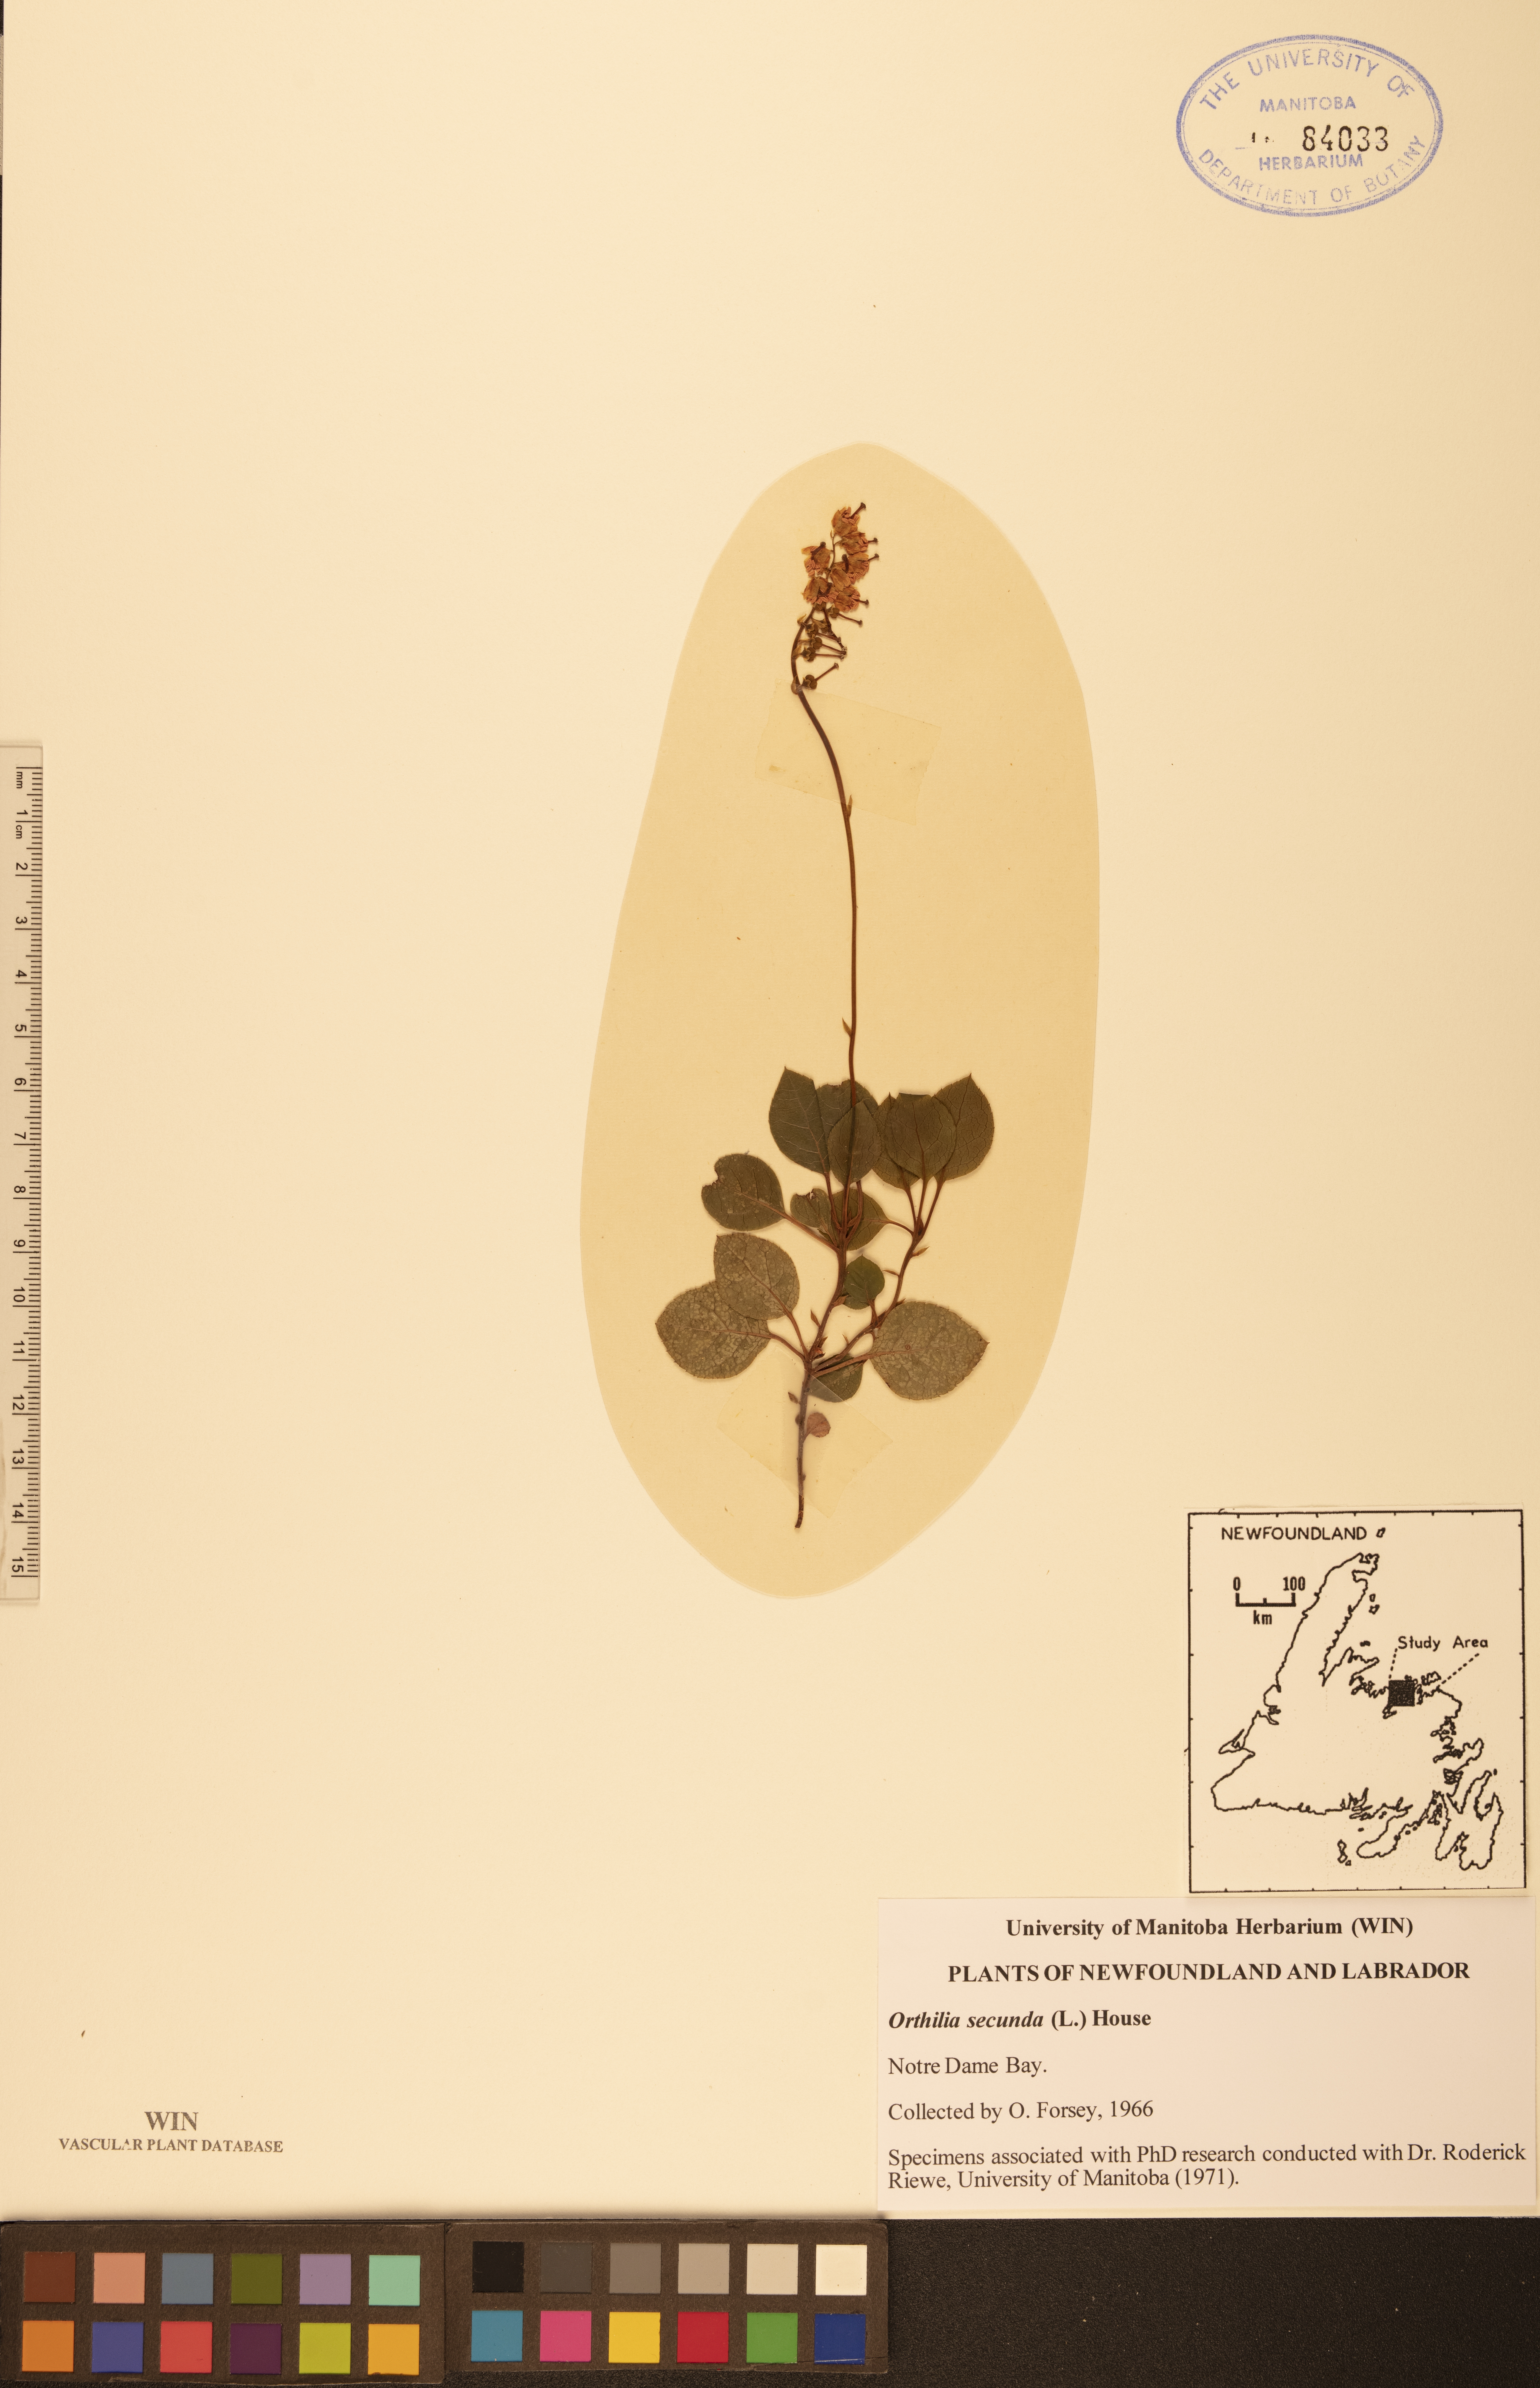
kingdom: Plantae
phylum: Tracheophyta
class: Magnoliopsida
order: Ericales
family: Ericaceae
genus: Orthilia
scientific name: Orthilia secunda
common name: One-sided orthilia
